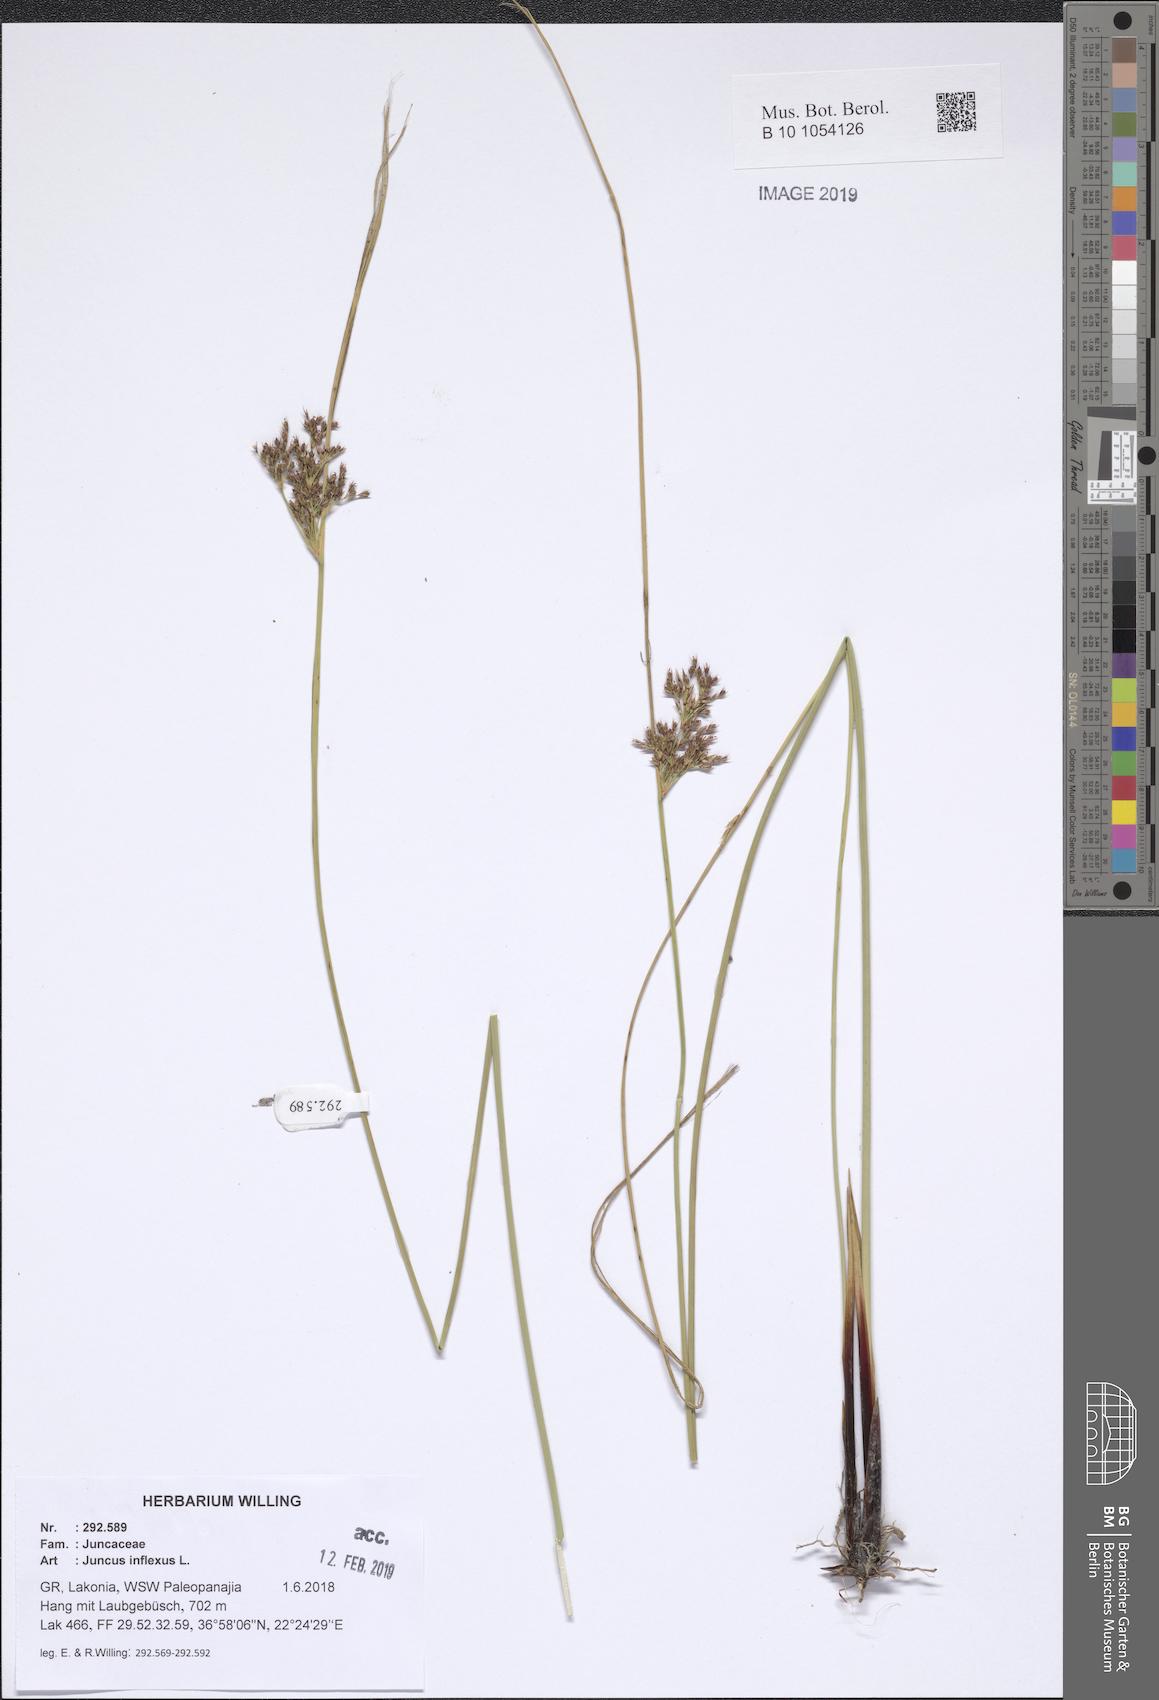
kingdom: Plantae
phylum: Tracheophyta
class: Liliopsida
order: Poales
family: Juncaceae
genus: Juncus
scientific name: Juncus inflexus
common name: Hard rush
